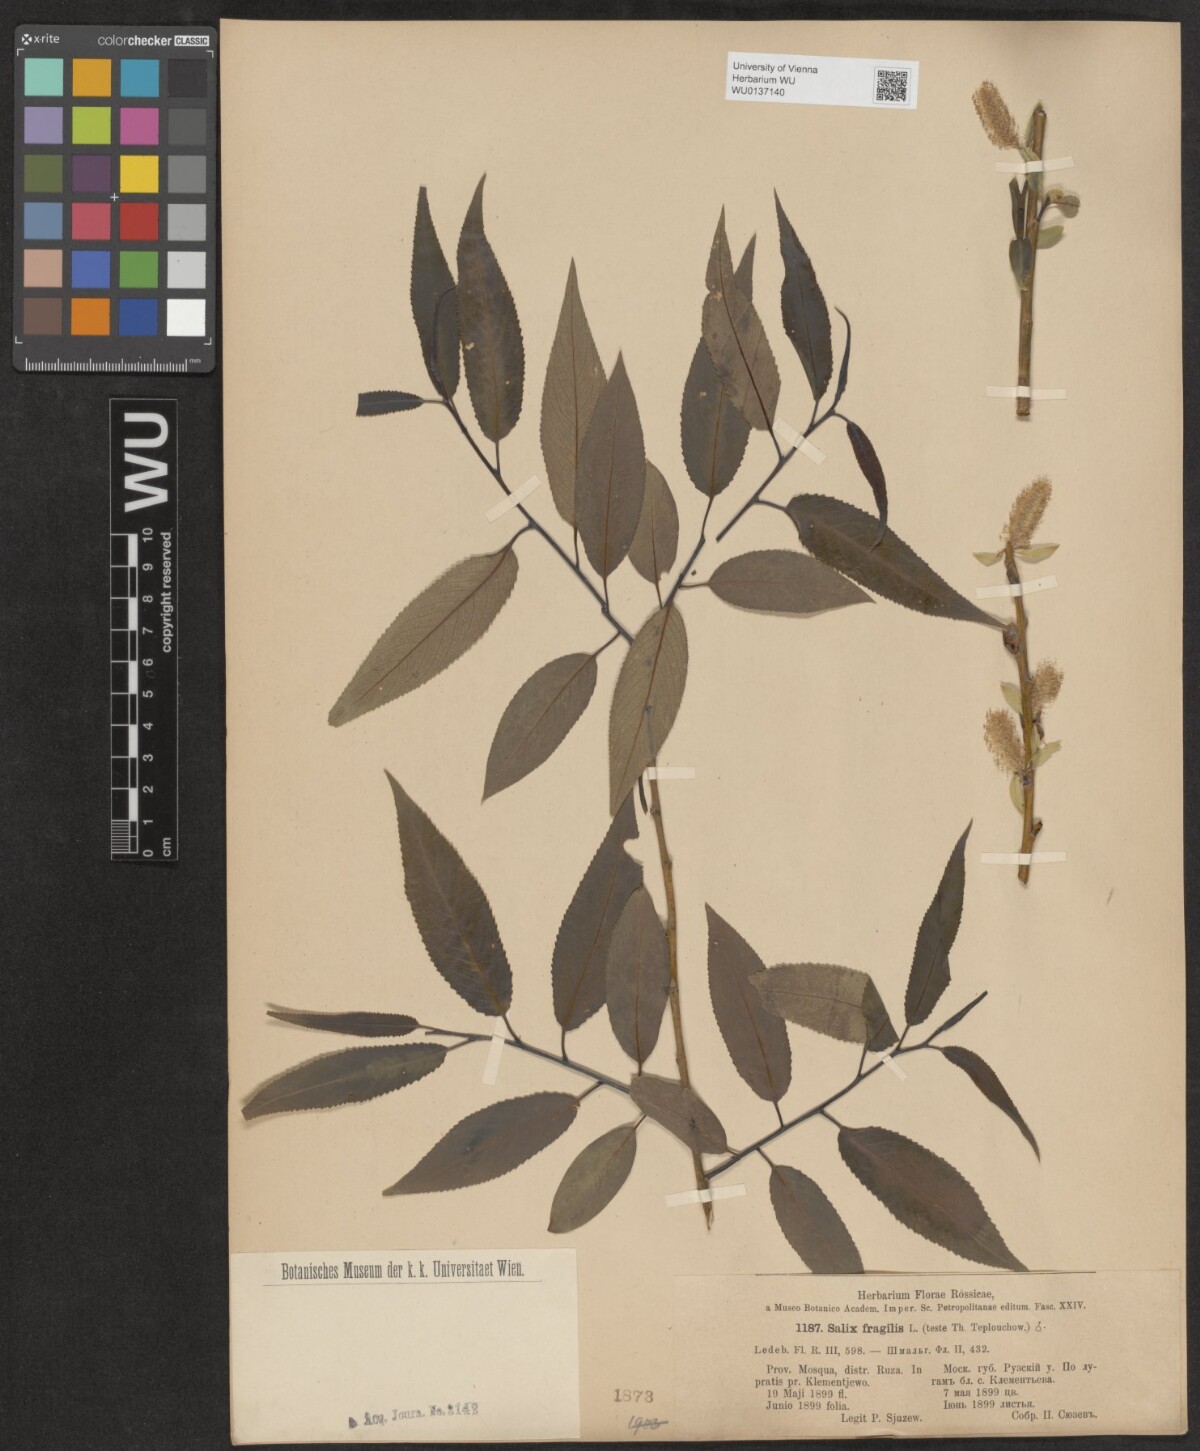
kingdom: Plantae
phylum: Tracheophyta
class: Magnoliopsida
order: Malpighiales
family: Salicaceae
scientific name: Salicaceae
